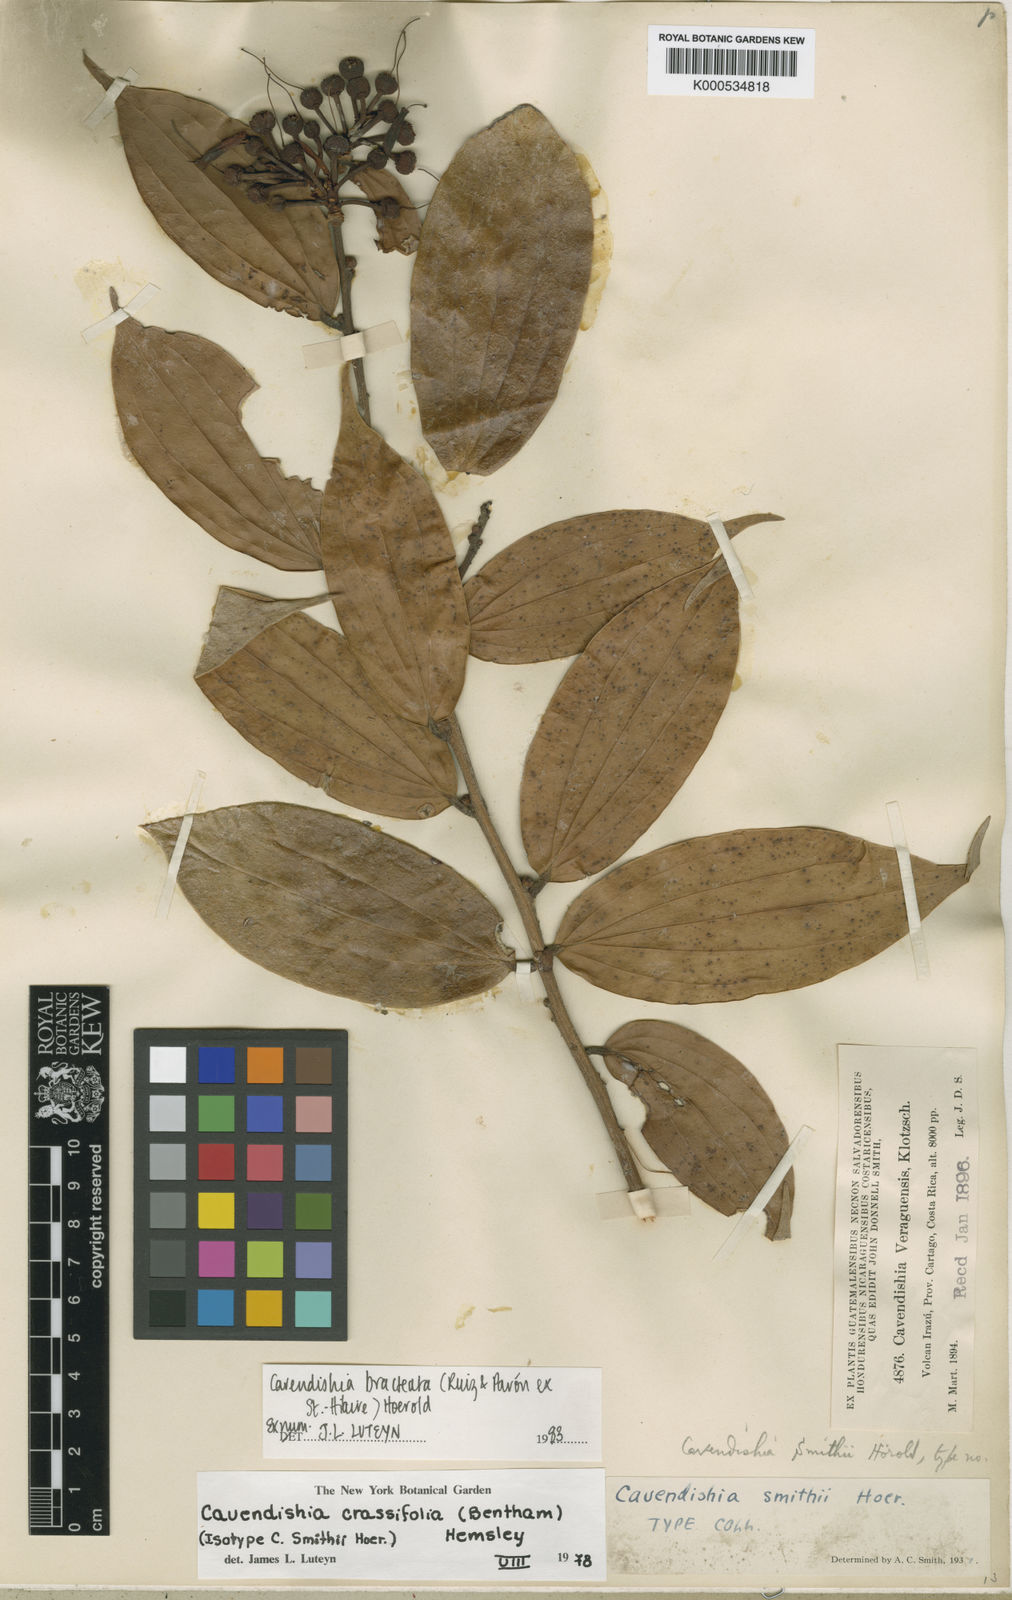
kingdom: Plantae
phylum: Tracheophyta
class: Magnoliopsida
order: Ericales
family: Ericaceae
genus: Cavendishia
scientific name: Cavendishia bracteata
